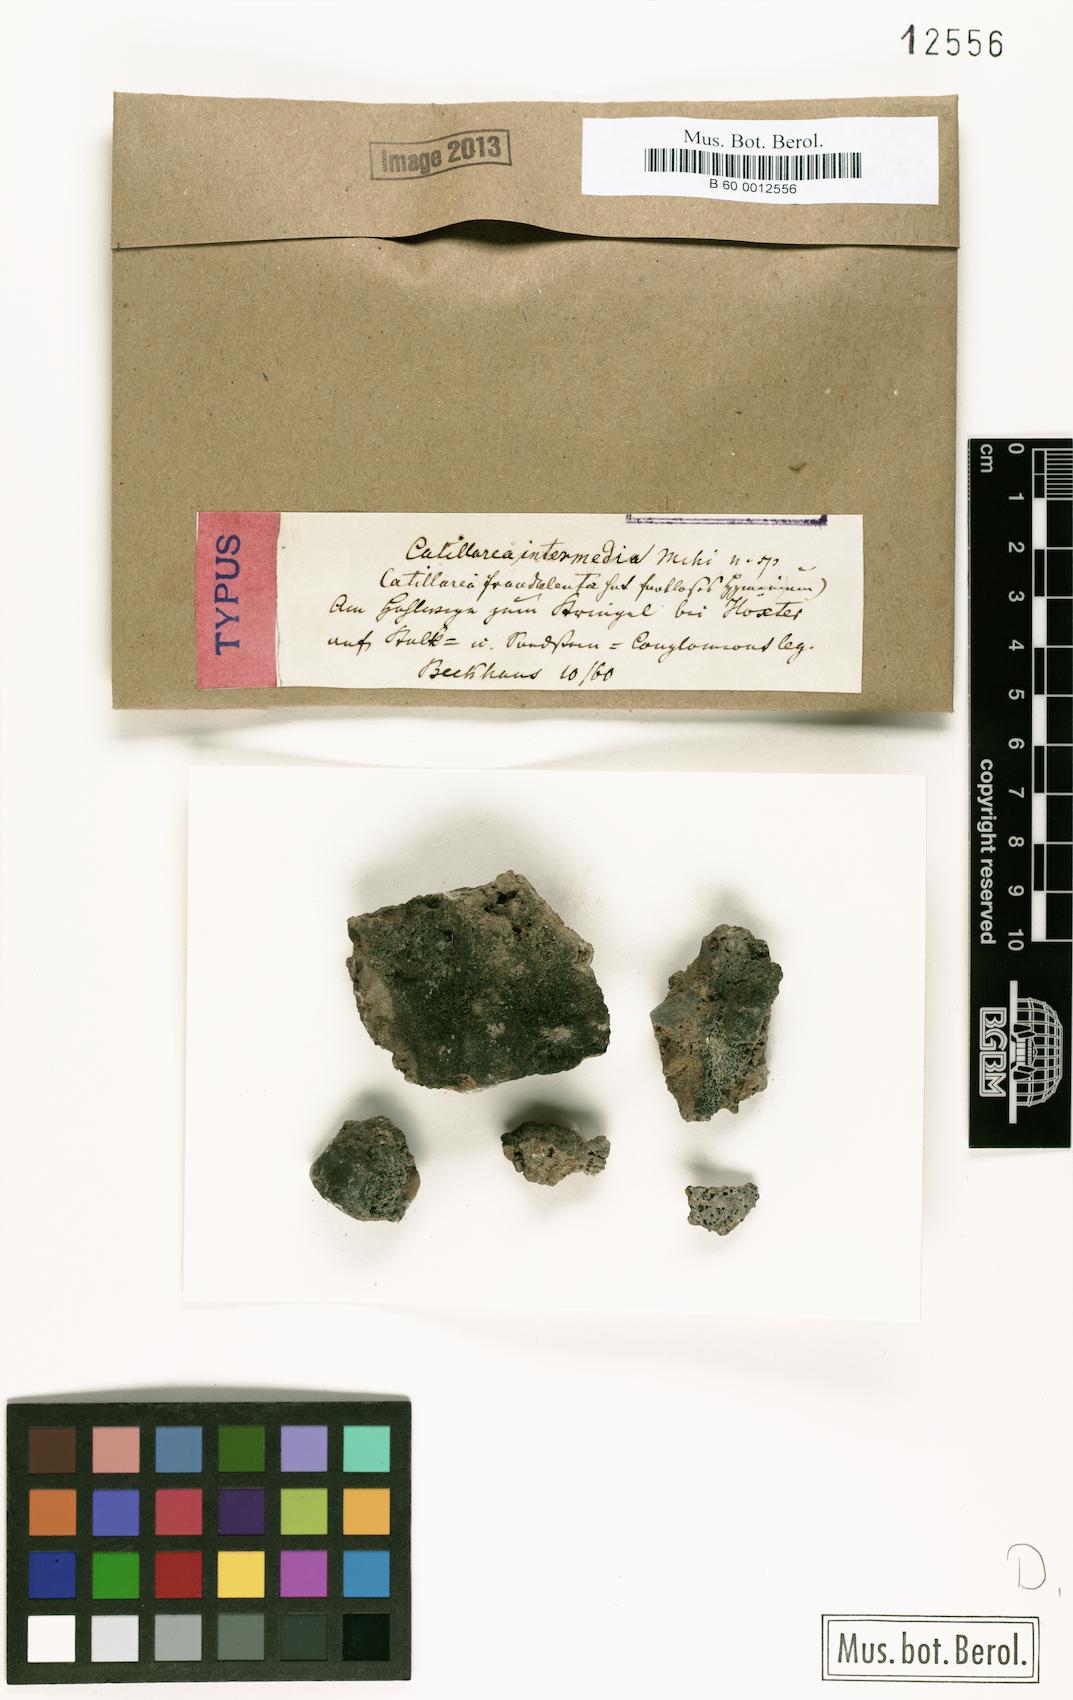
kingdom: Fungi
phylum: Ascomycota
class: Lecanoromycetes
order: Lecanorales
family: Catillariaceae
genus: Catillaria
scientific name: Catillaria intermedia
